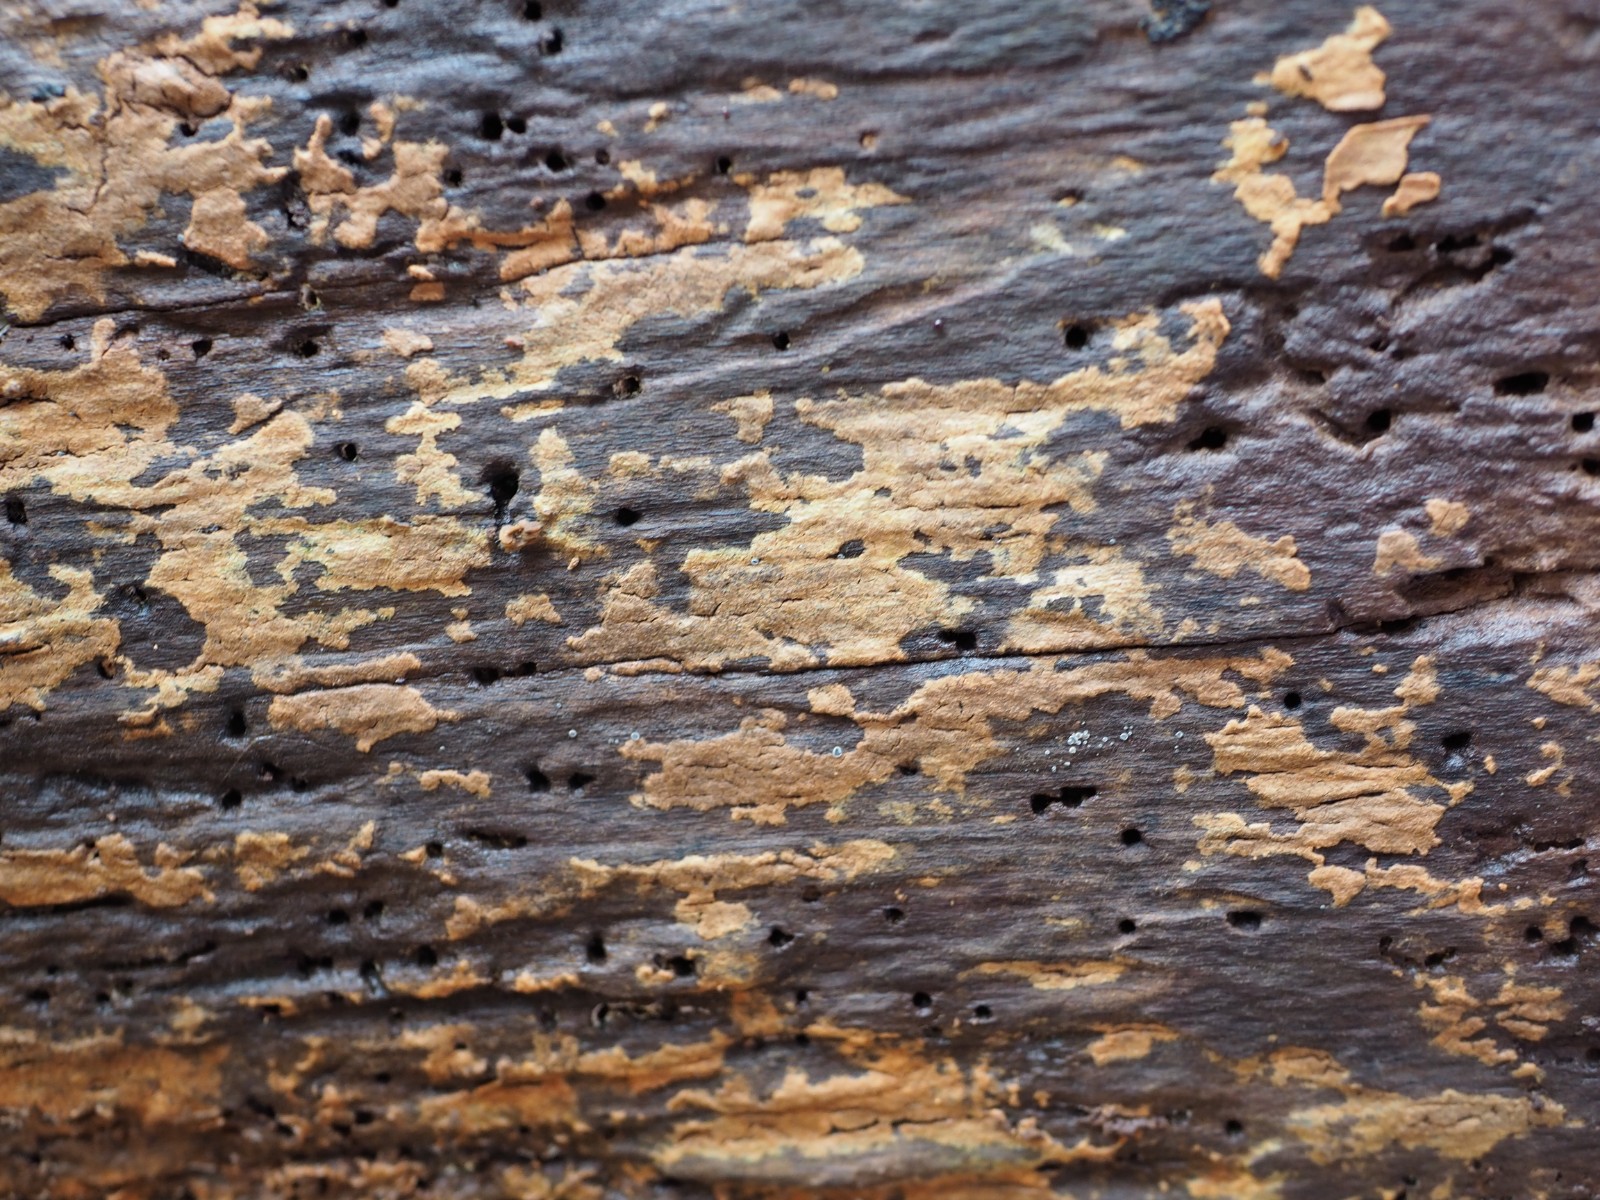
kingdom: Fungi
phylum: Basidiomycota
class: Agaricomycetes
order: Polyporales
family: Meruliaceae
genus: Cytidiella
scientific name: Cytidiella albida
